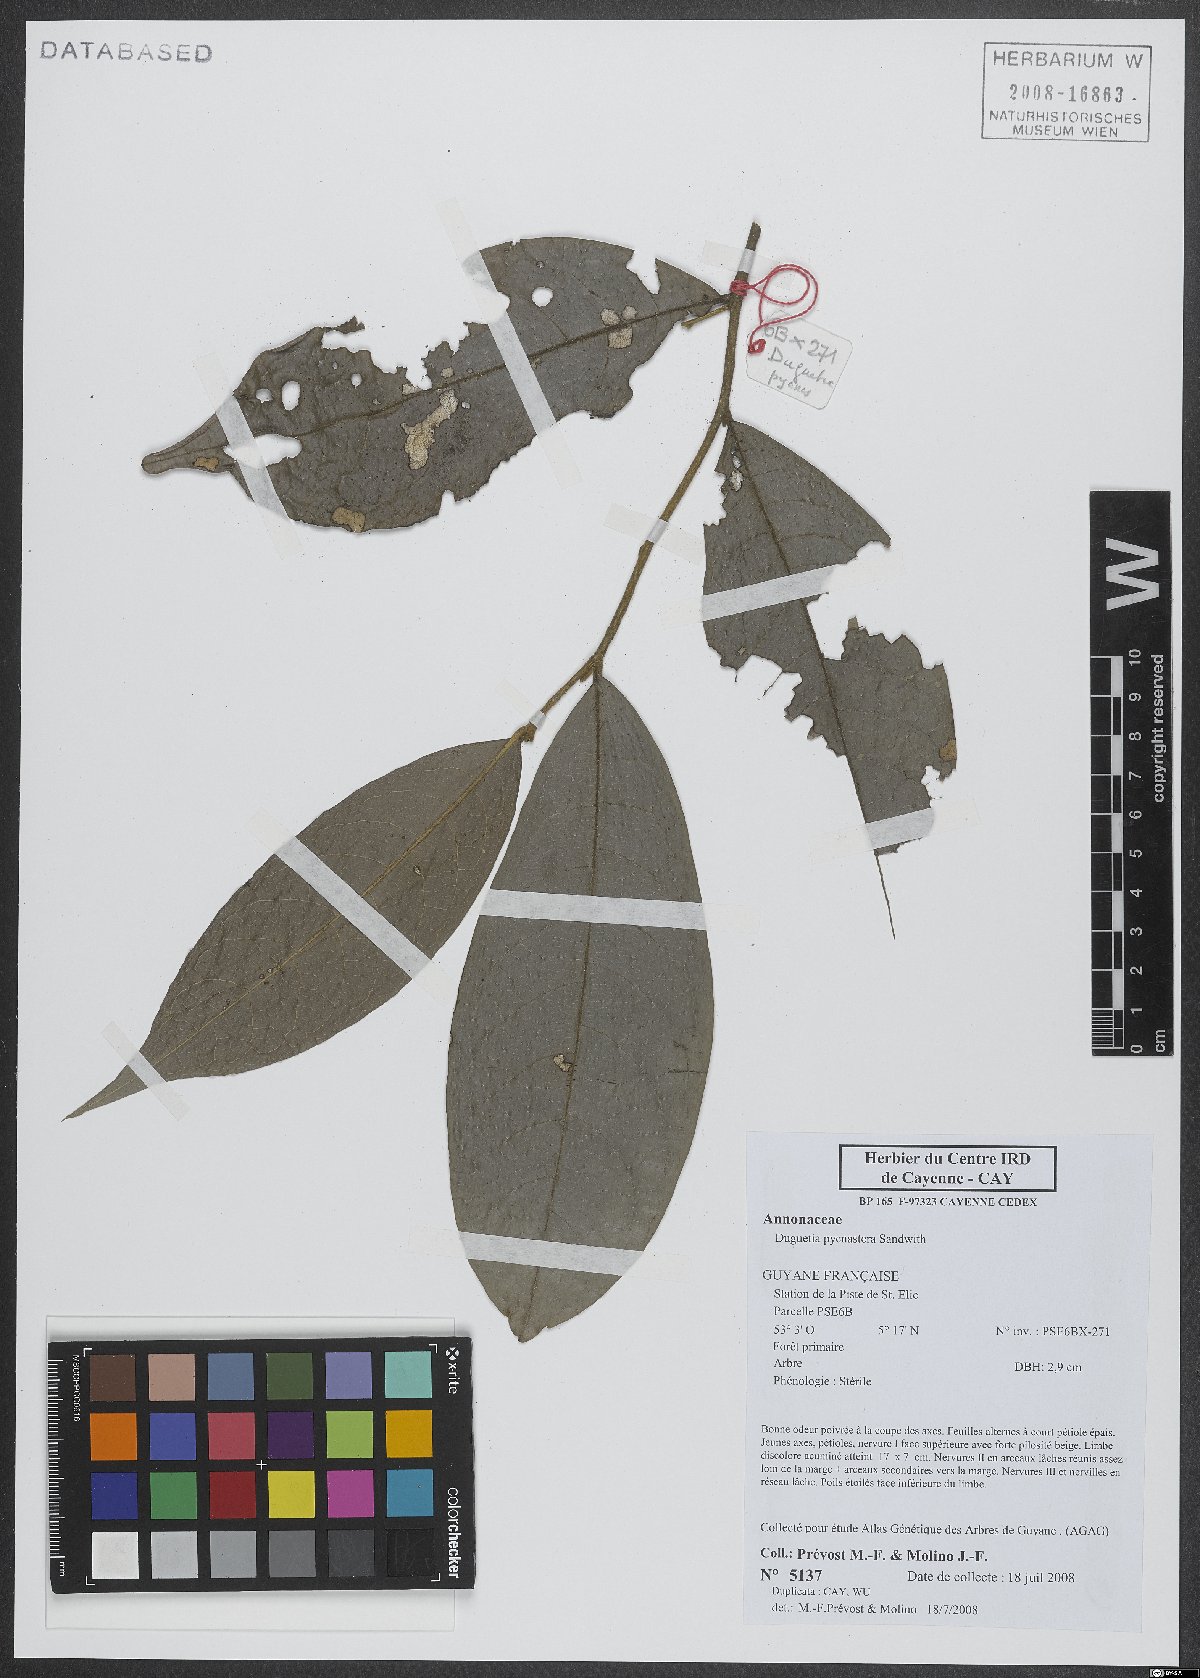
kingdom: Plantae
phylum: Tracheophyta
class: Magnoliopsida
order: Magnoliales
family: Annonaceae
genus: Duguetia
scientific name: Duguetia pycnastera
